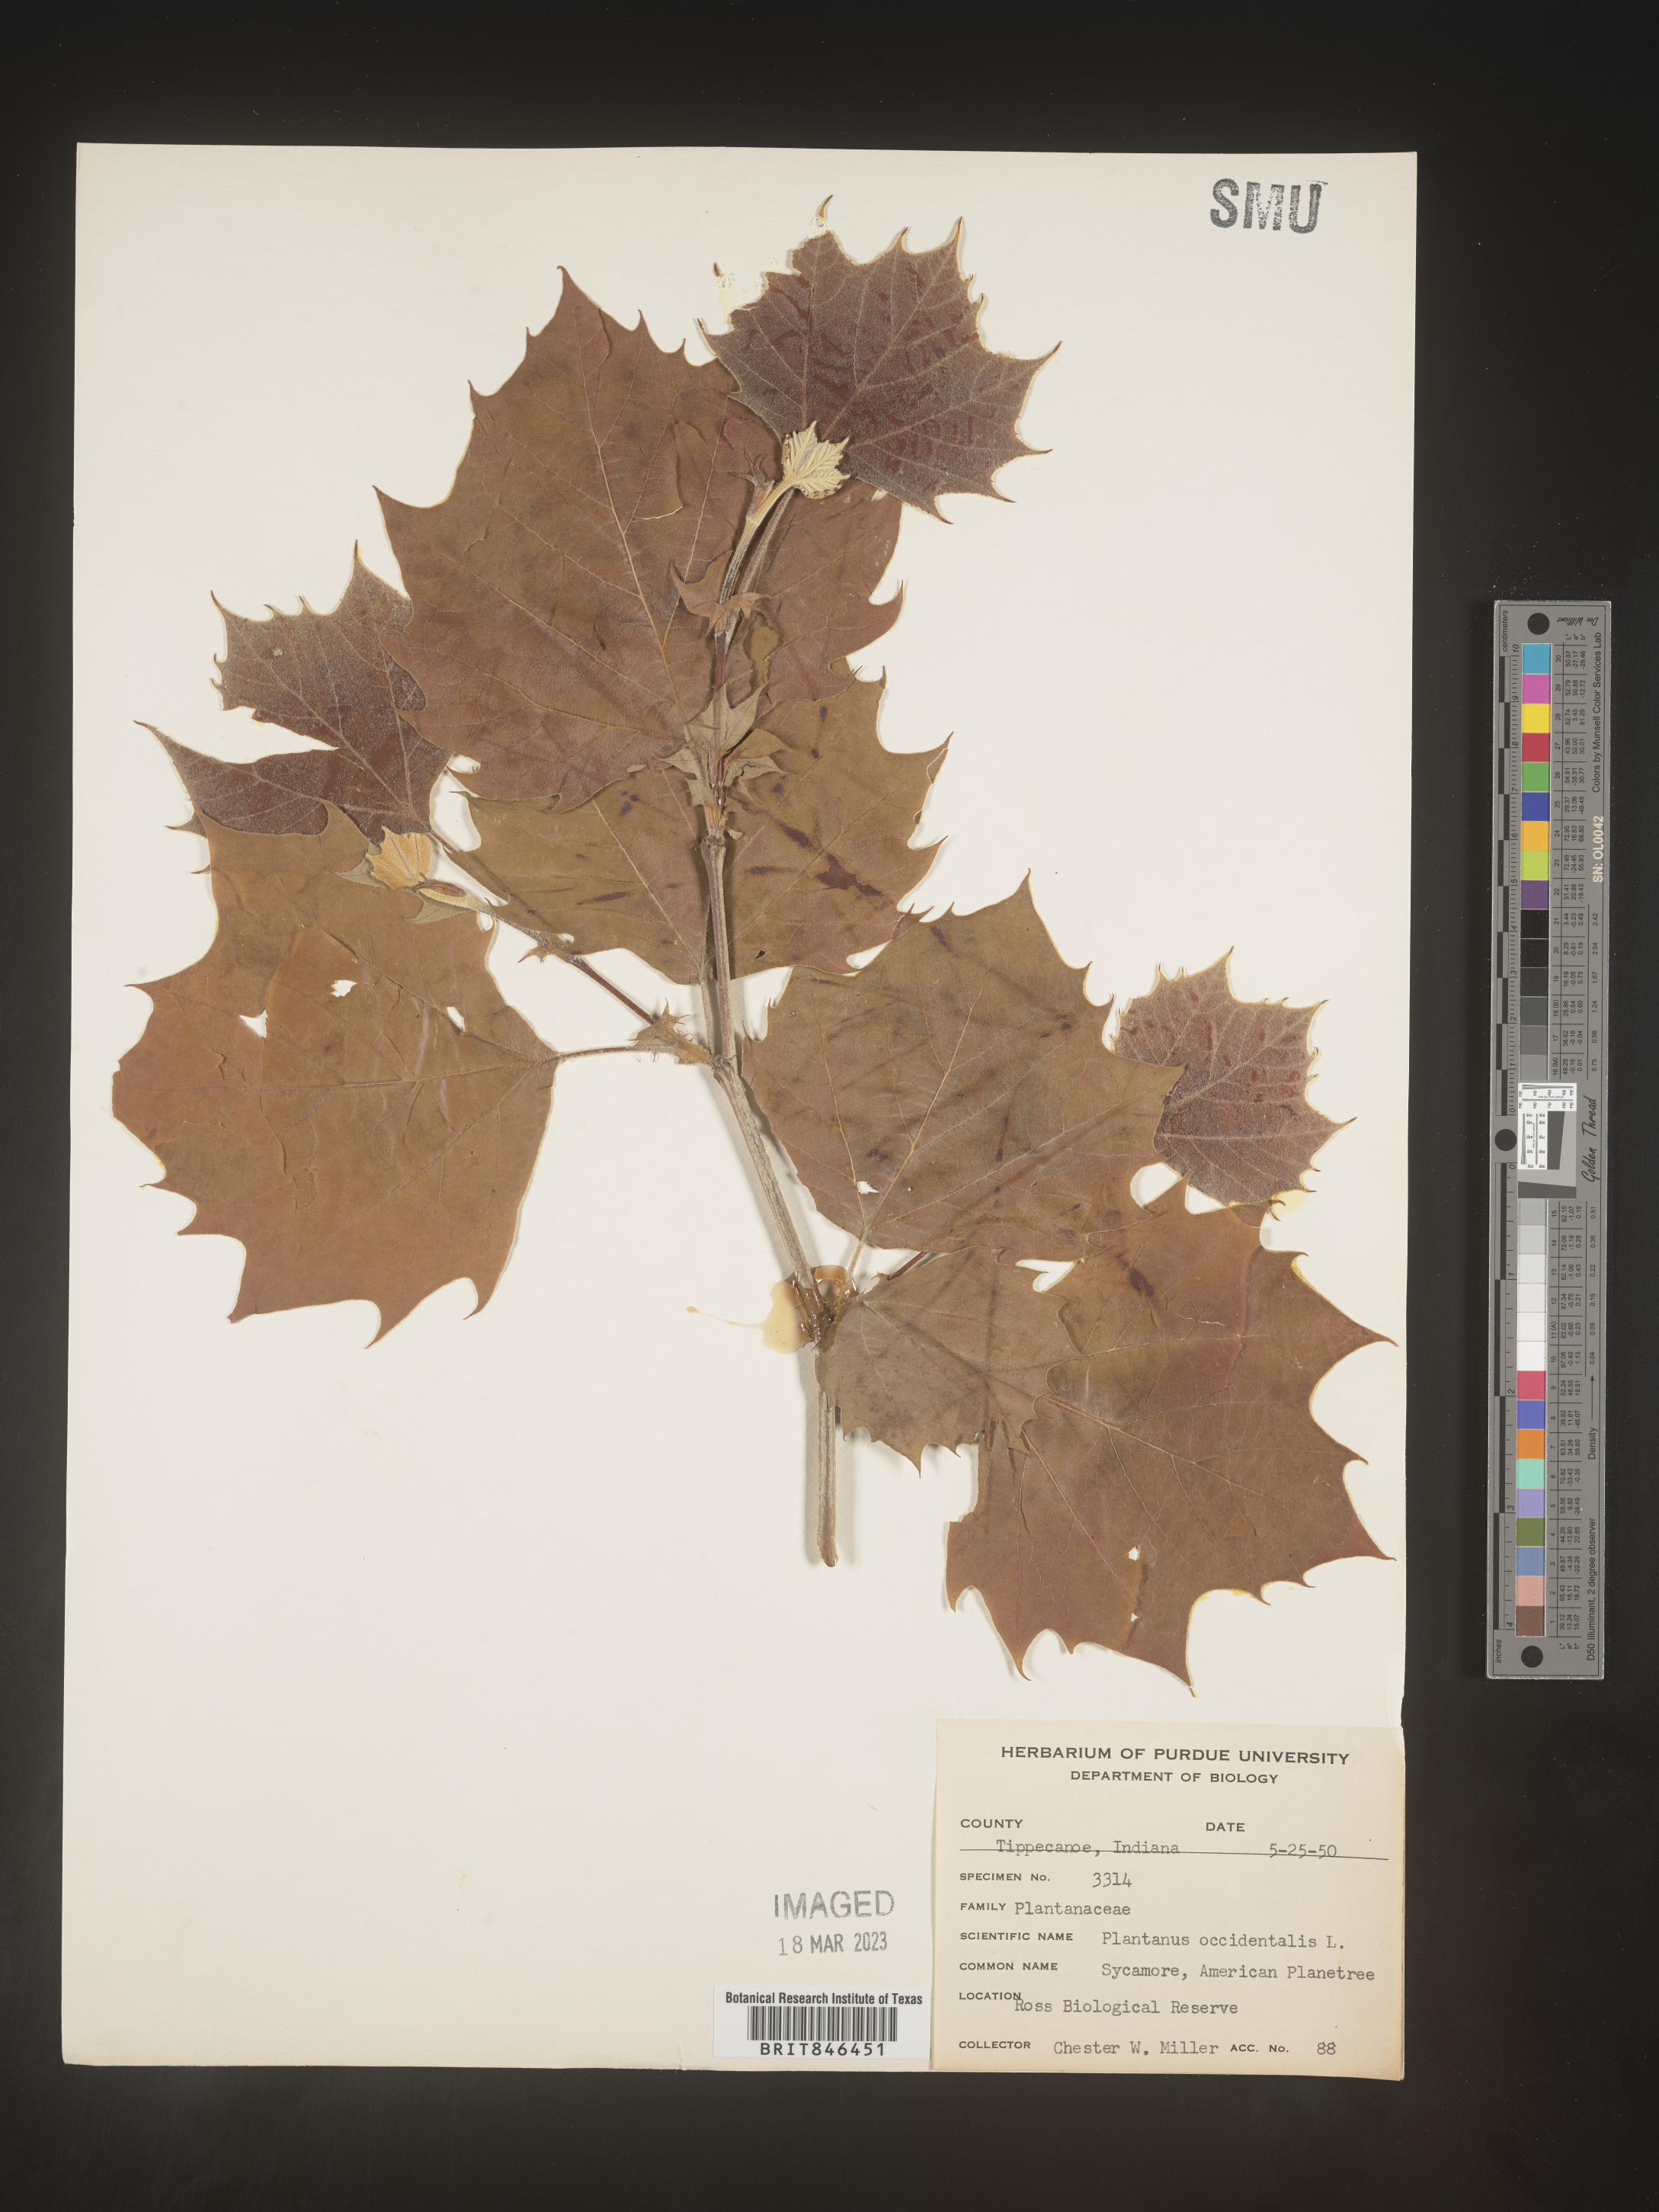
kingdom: Plantae
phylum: Tracheophyta
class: Magnoliopsida
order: Proteales
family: Platanaceae
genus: Platanus
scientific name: Platanus occidentalis
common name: American sycamore
